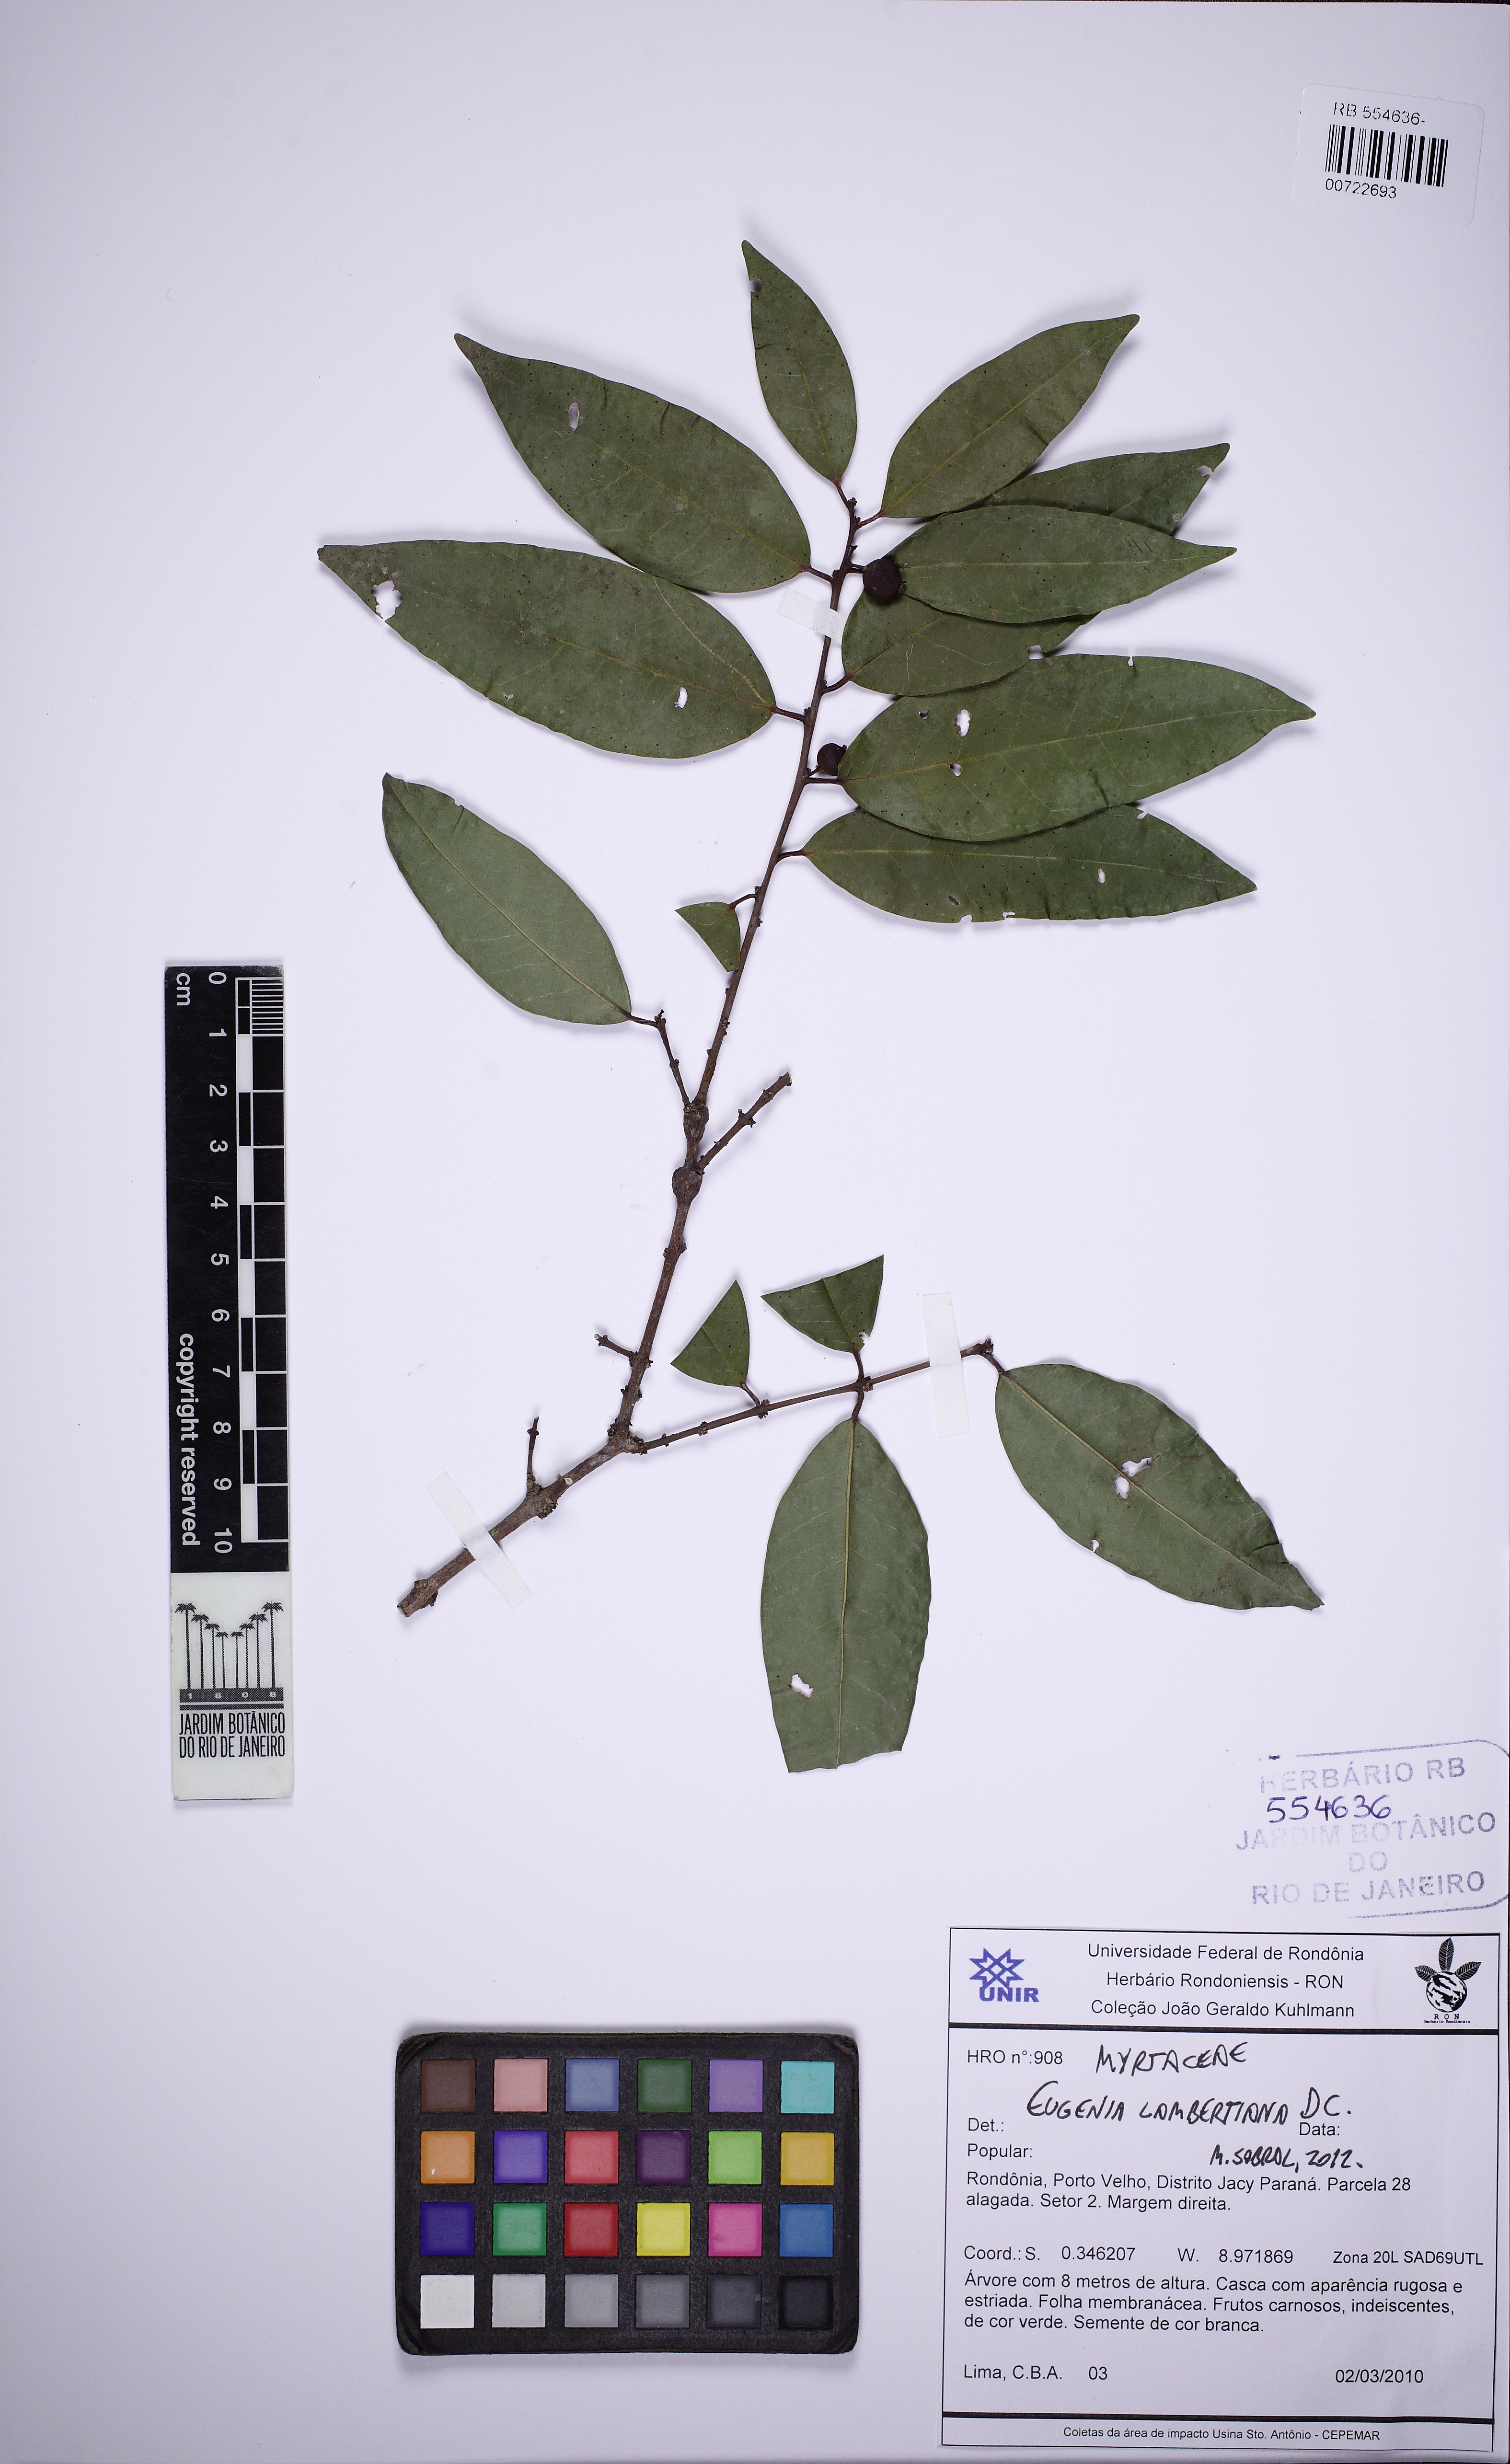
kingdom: Plantae
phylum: Tracheophyta
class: Magnoliopsida
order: Myrtales
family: Myrtaceae
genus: Eugenia
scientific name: Eugenia lambertiana
